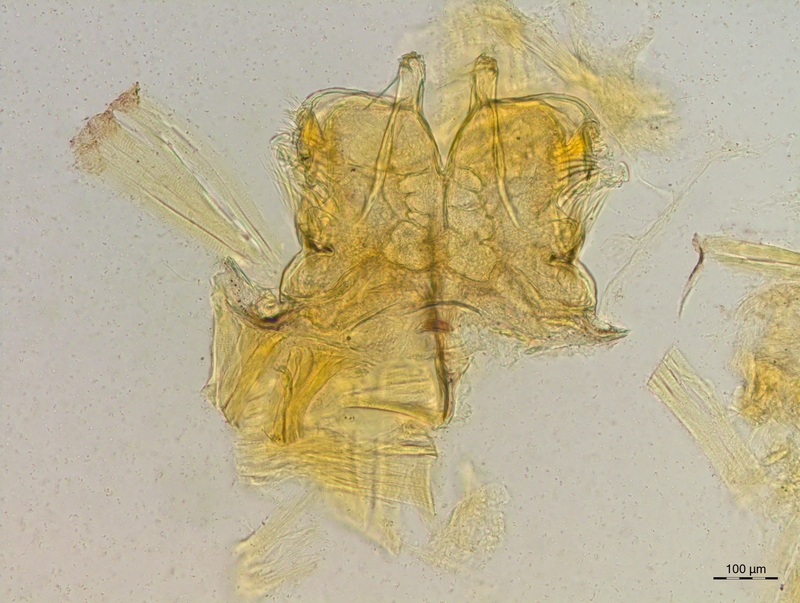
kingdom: Animalia
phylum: Arthropoda
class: Diplopoda
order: Chordeumatida
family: Craspedosomatidae
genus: Craspedosoma
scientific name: Craspedosoma rawlinsii
